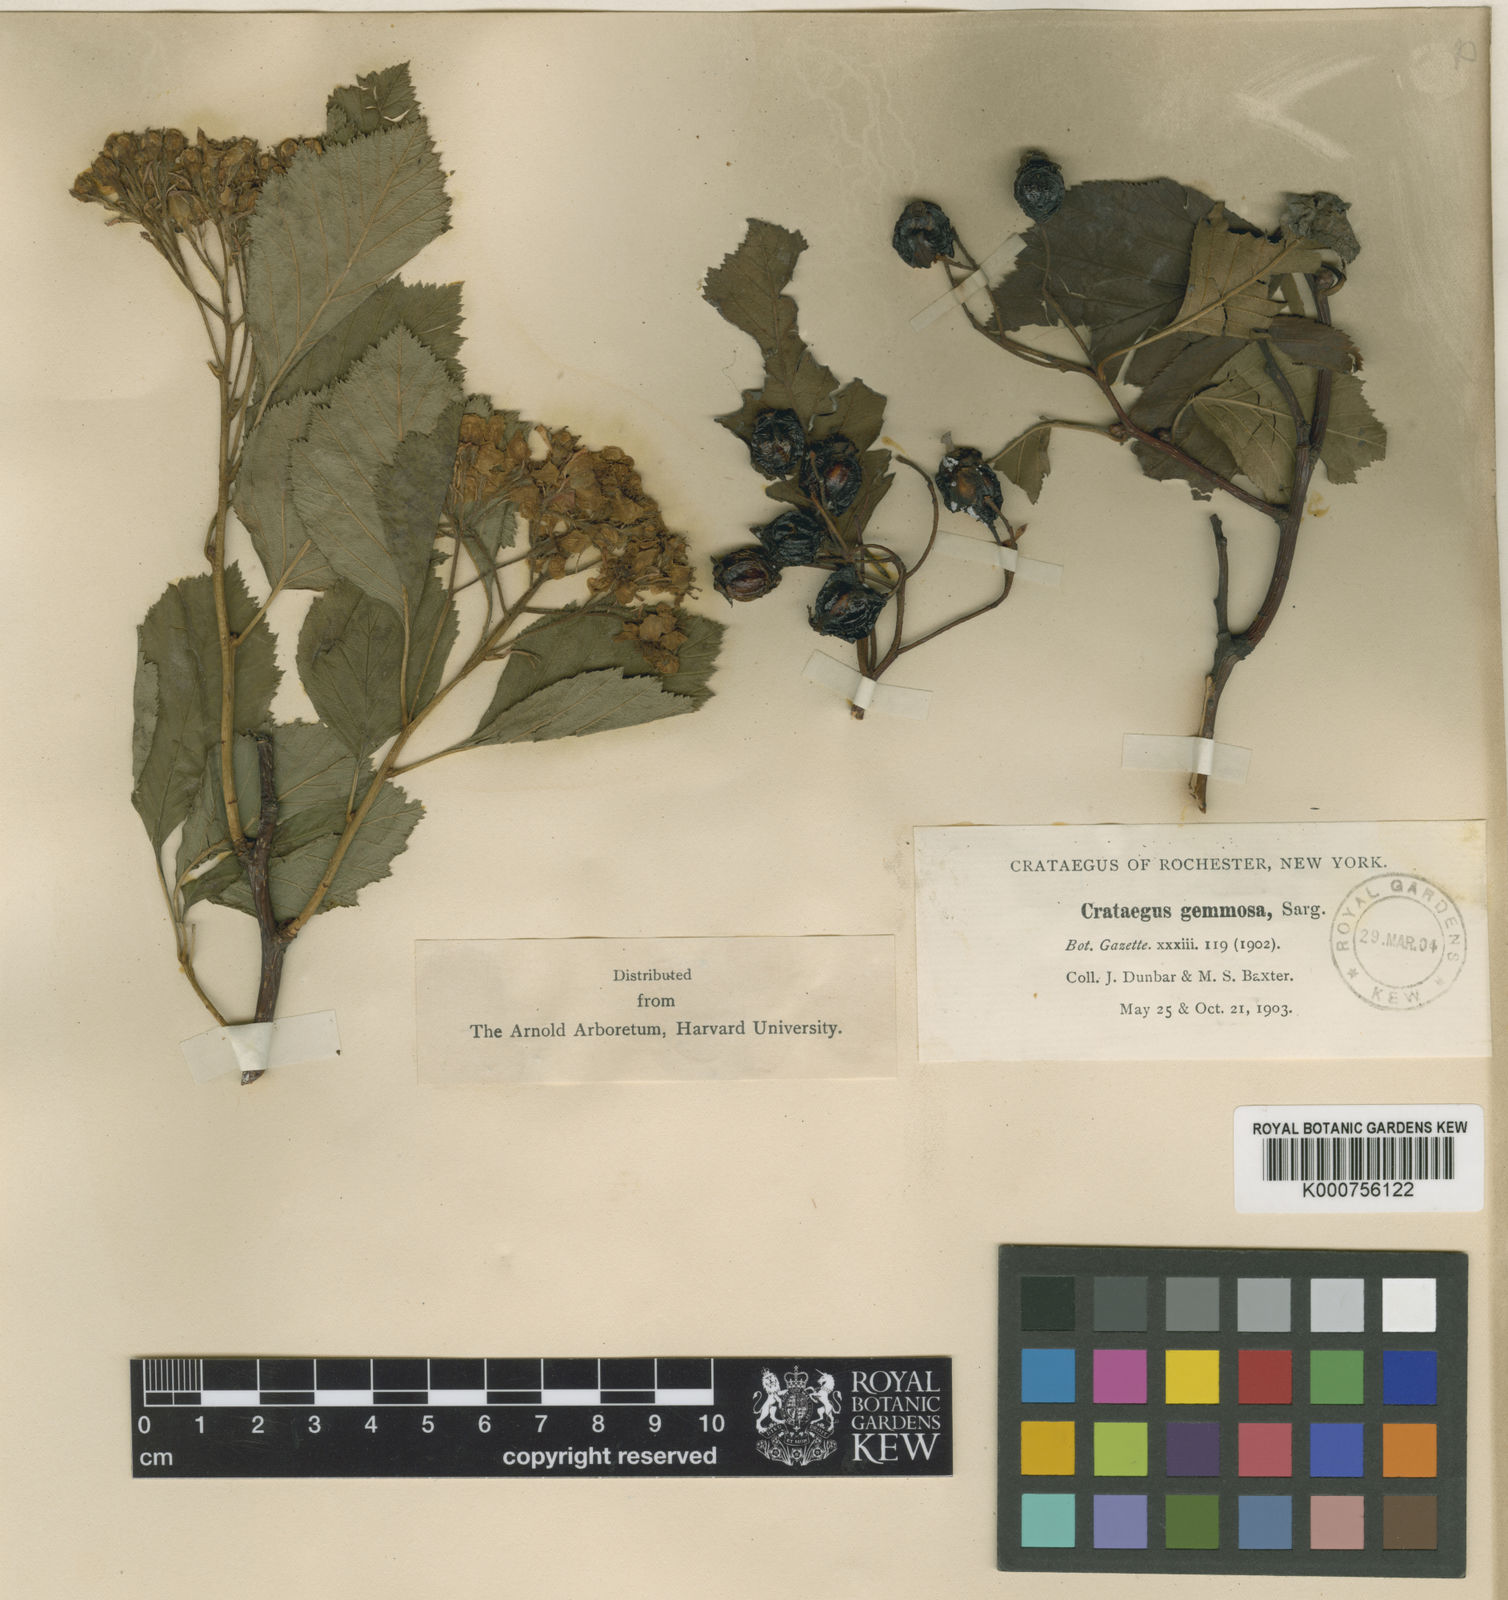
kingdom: Plantae
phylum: Tracheophyta
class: Magnoliopsida
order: Rosales
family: Rosaceae
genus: Crataegus
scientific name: Crataegus succulenta
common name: Fleshy hawthorn
